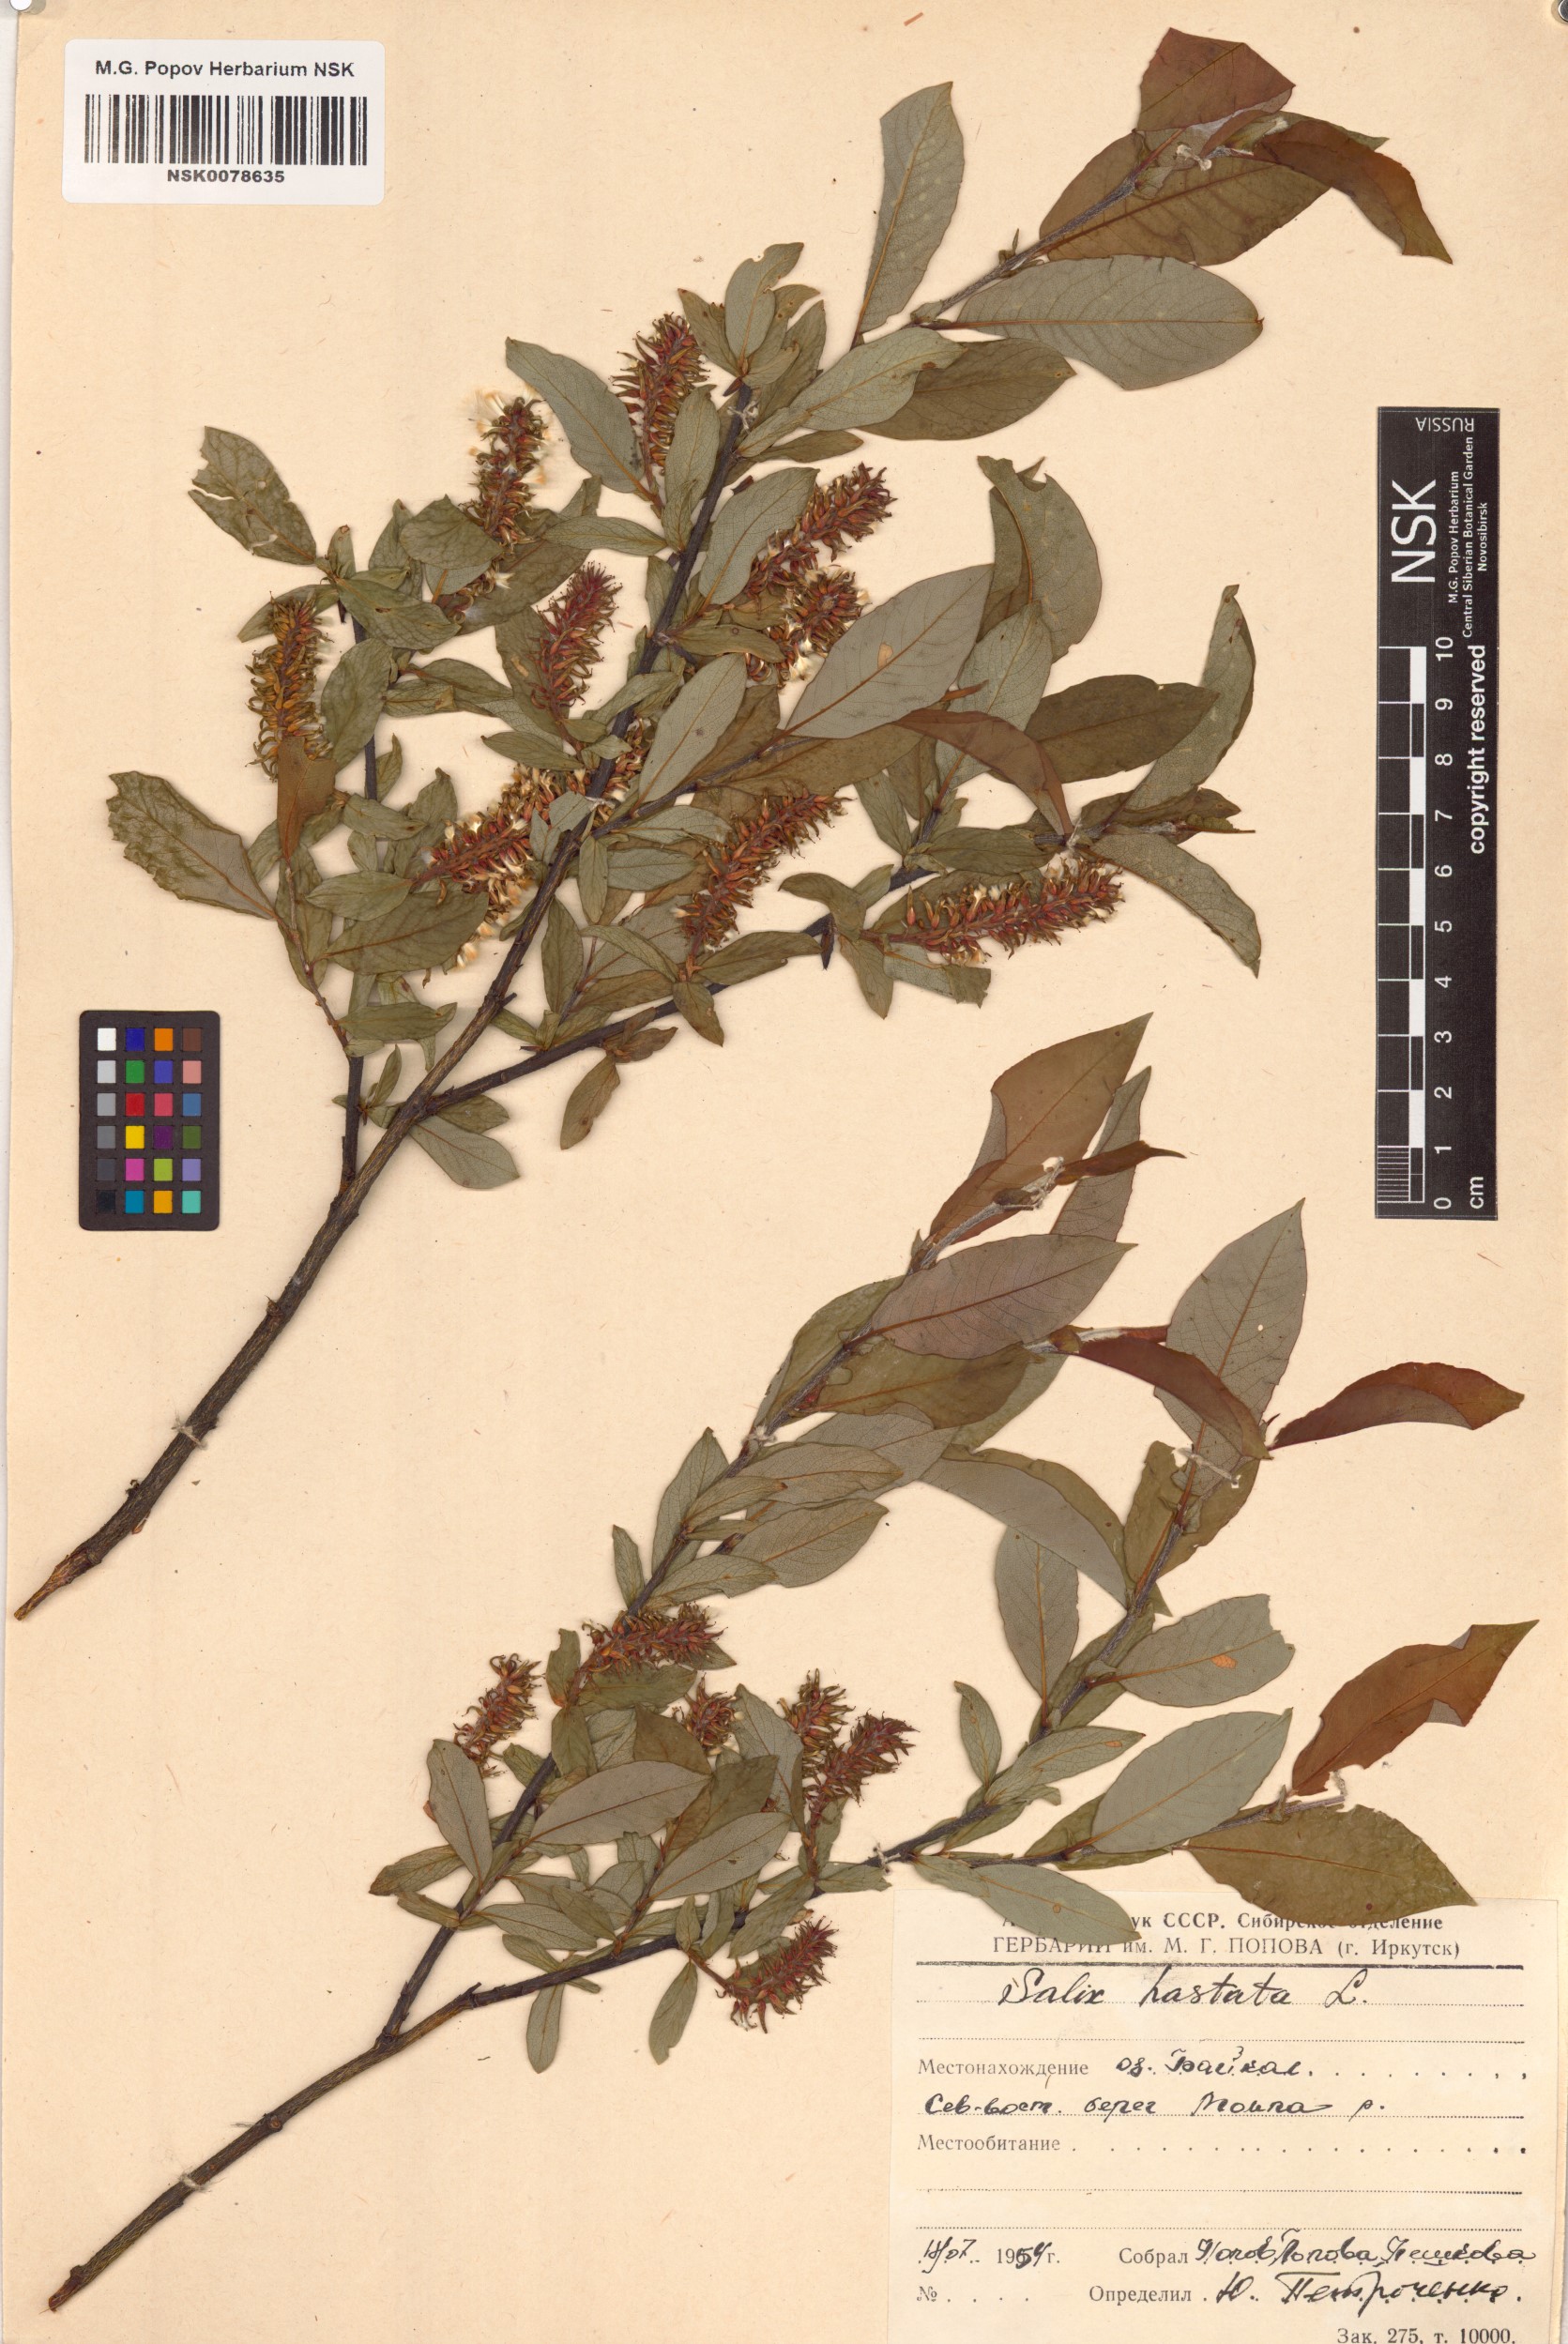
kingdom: Plantae
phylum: Tracheophyta
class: Magnoliopsida
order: Malpighiales
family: Salicaceae
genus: Salix
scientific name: Salix hastata
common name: Halberd willow
